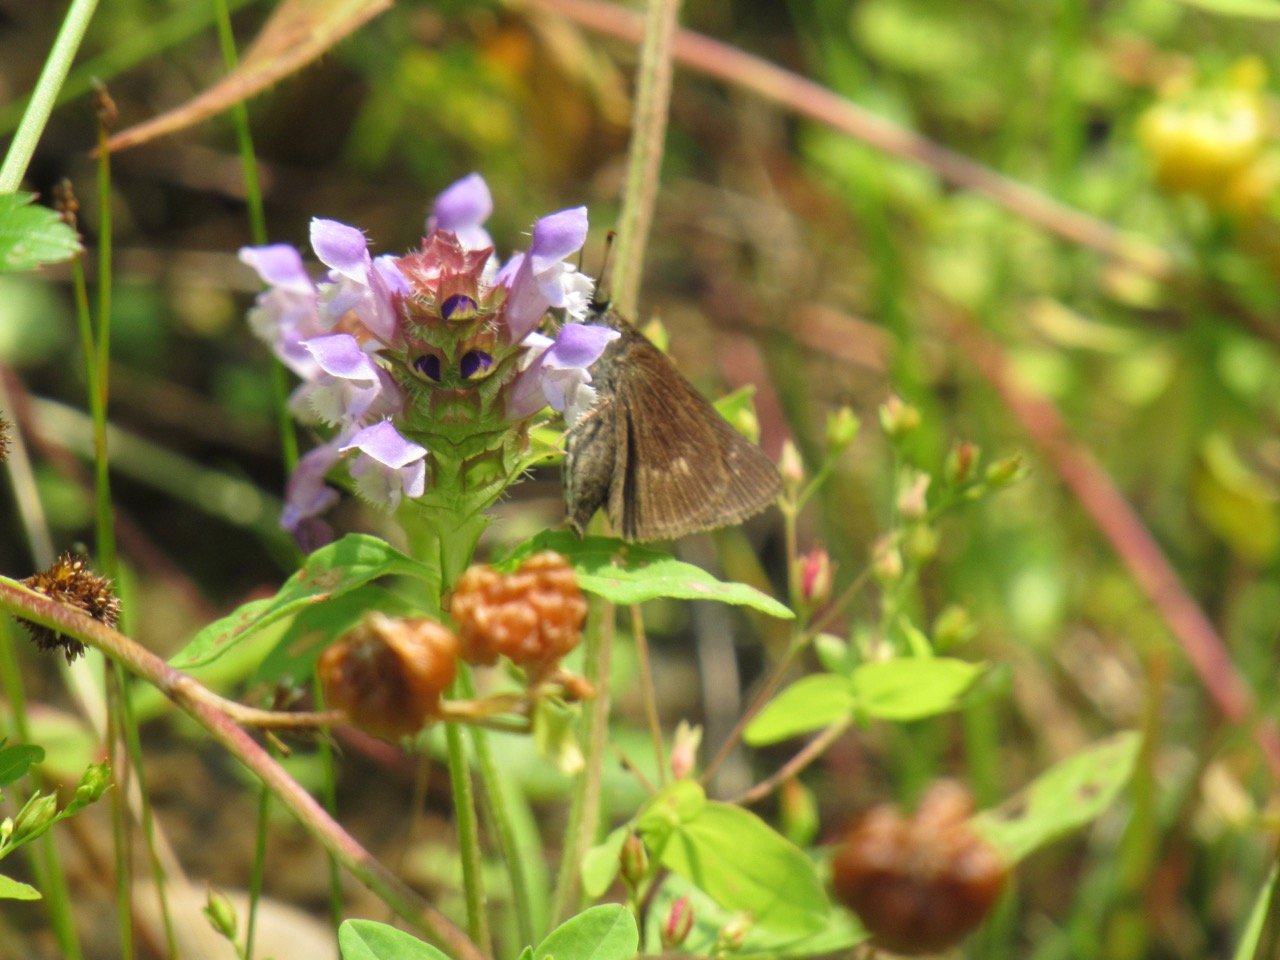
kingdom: Animalia
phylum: Arthropoda
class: Insecta
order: Lepidoptera
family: Hesperiidae
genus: Polites
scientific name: Polites egeremet
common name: Northern Broken-Dash
